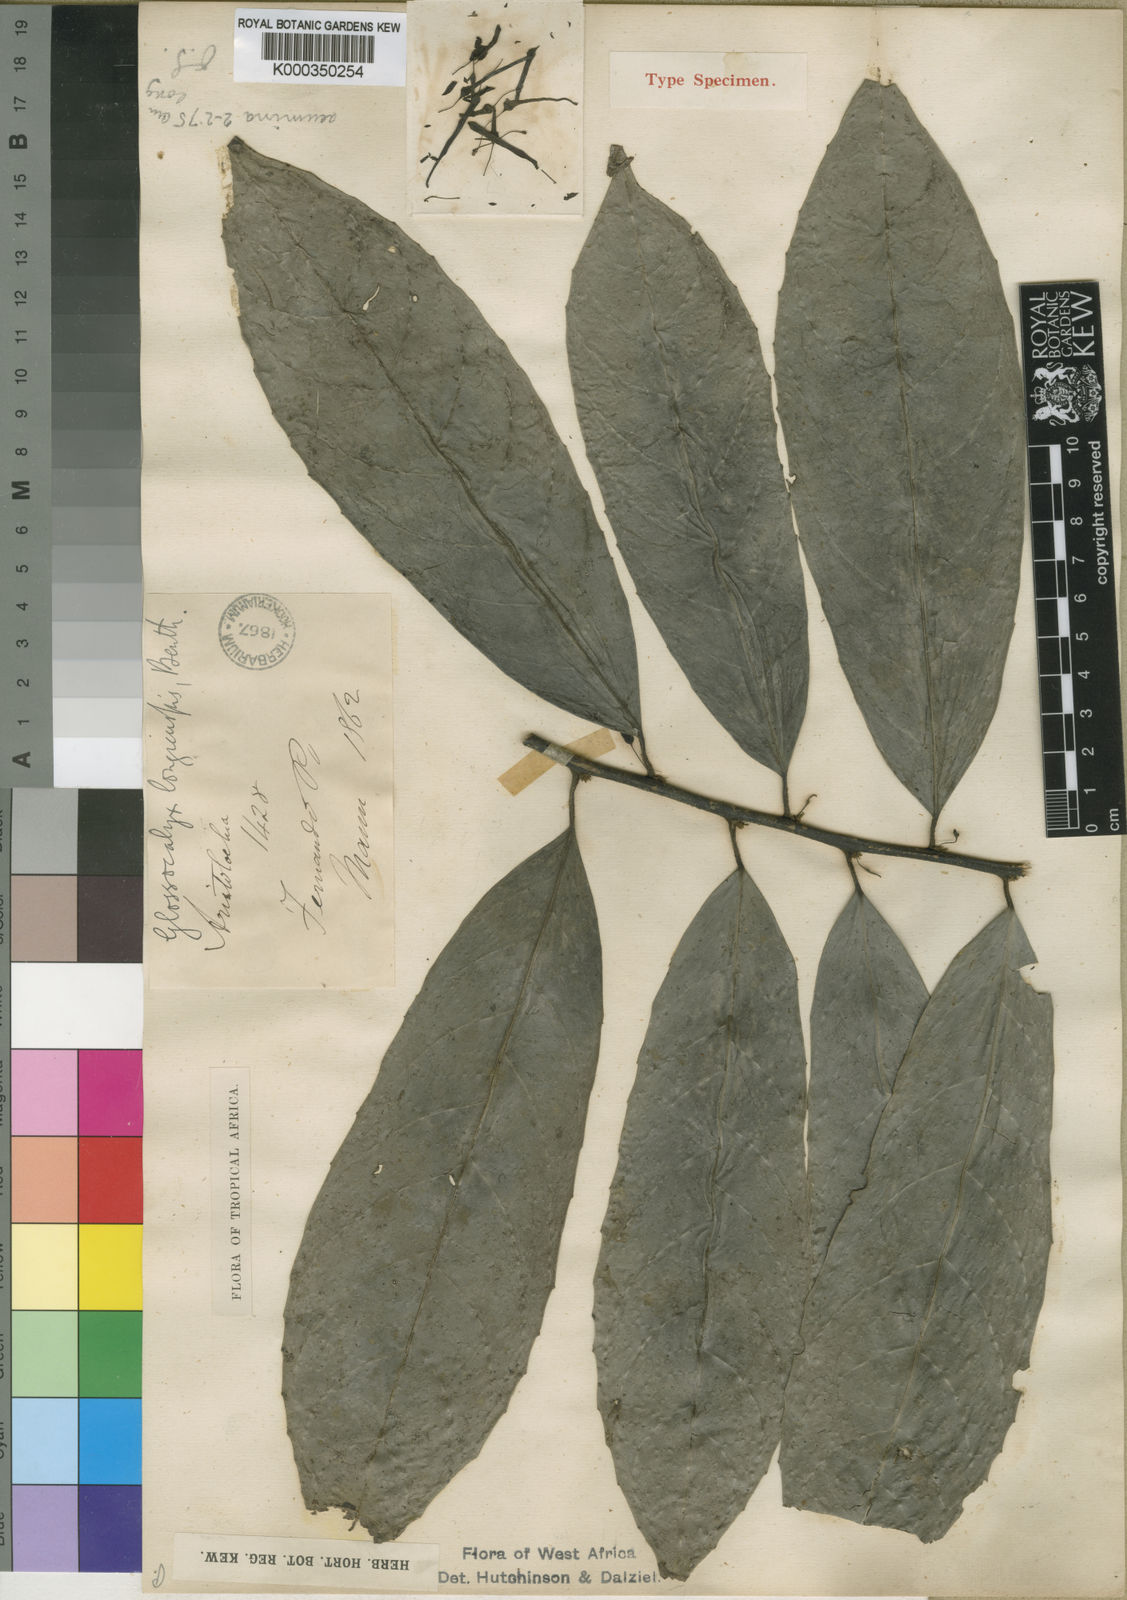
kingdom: Plantae
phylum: Tracheophyta
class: Magnoliopsida
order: Laurales
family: Siparunaceae
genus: Glossocalyx
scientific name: Glossocalyx longicuspis
